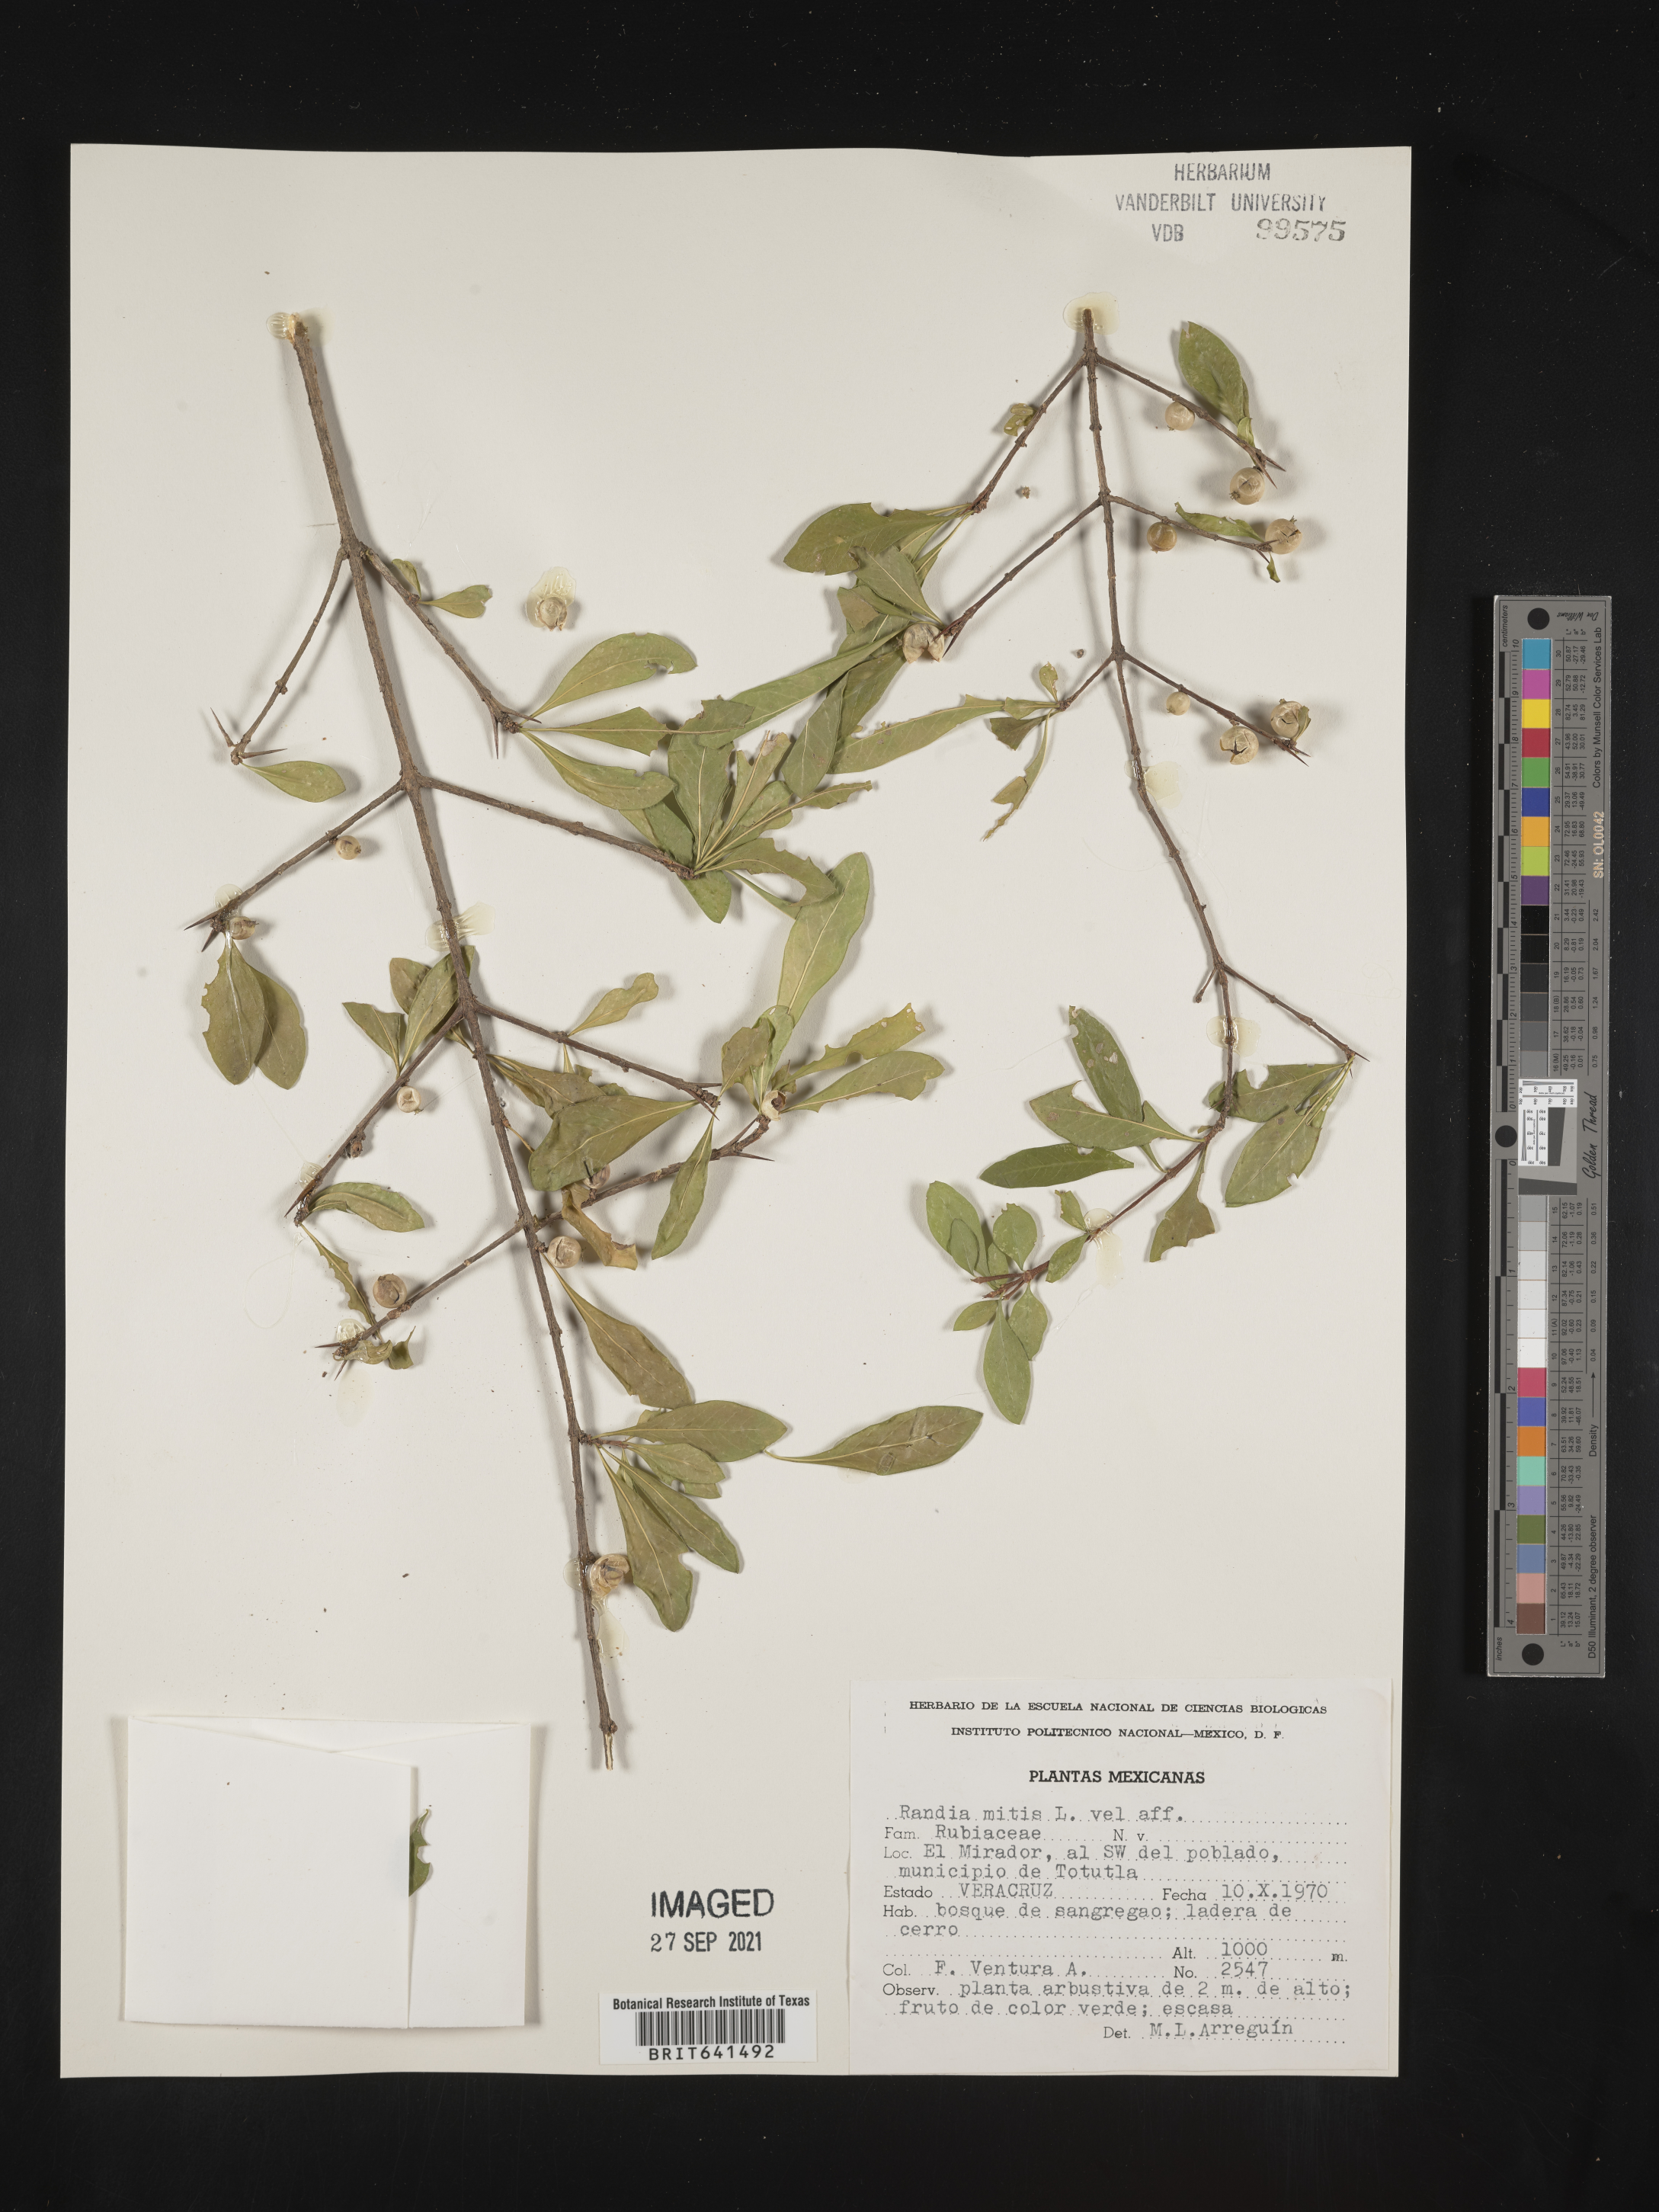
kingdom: Plantae
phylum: Tracheophyta
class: Magnoliopsida
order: Gentianales
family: Rubiaceae
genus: Randia
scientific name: Randia
